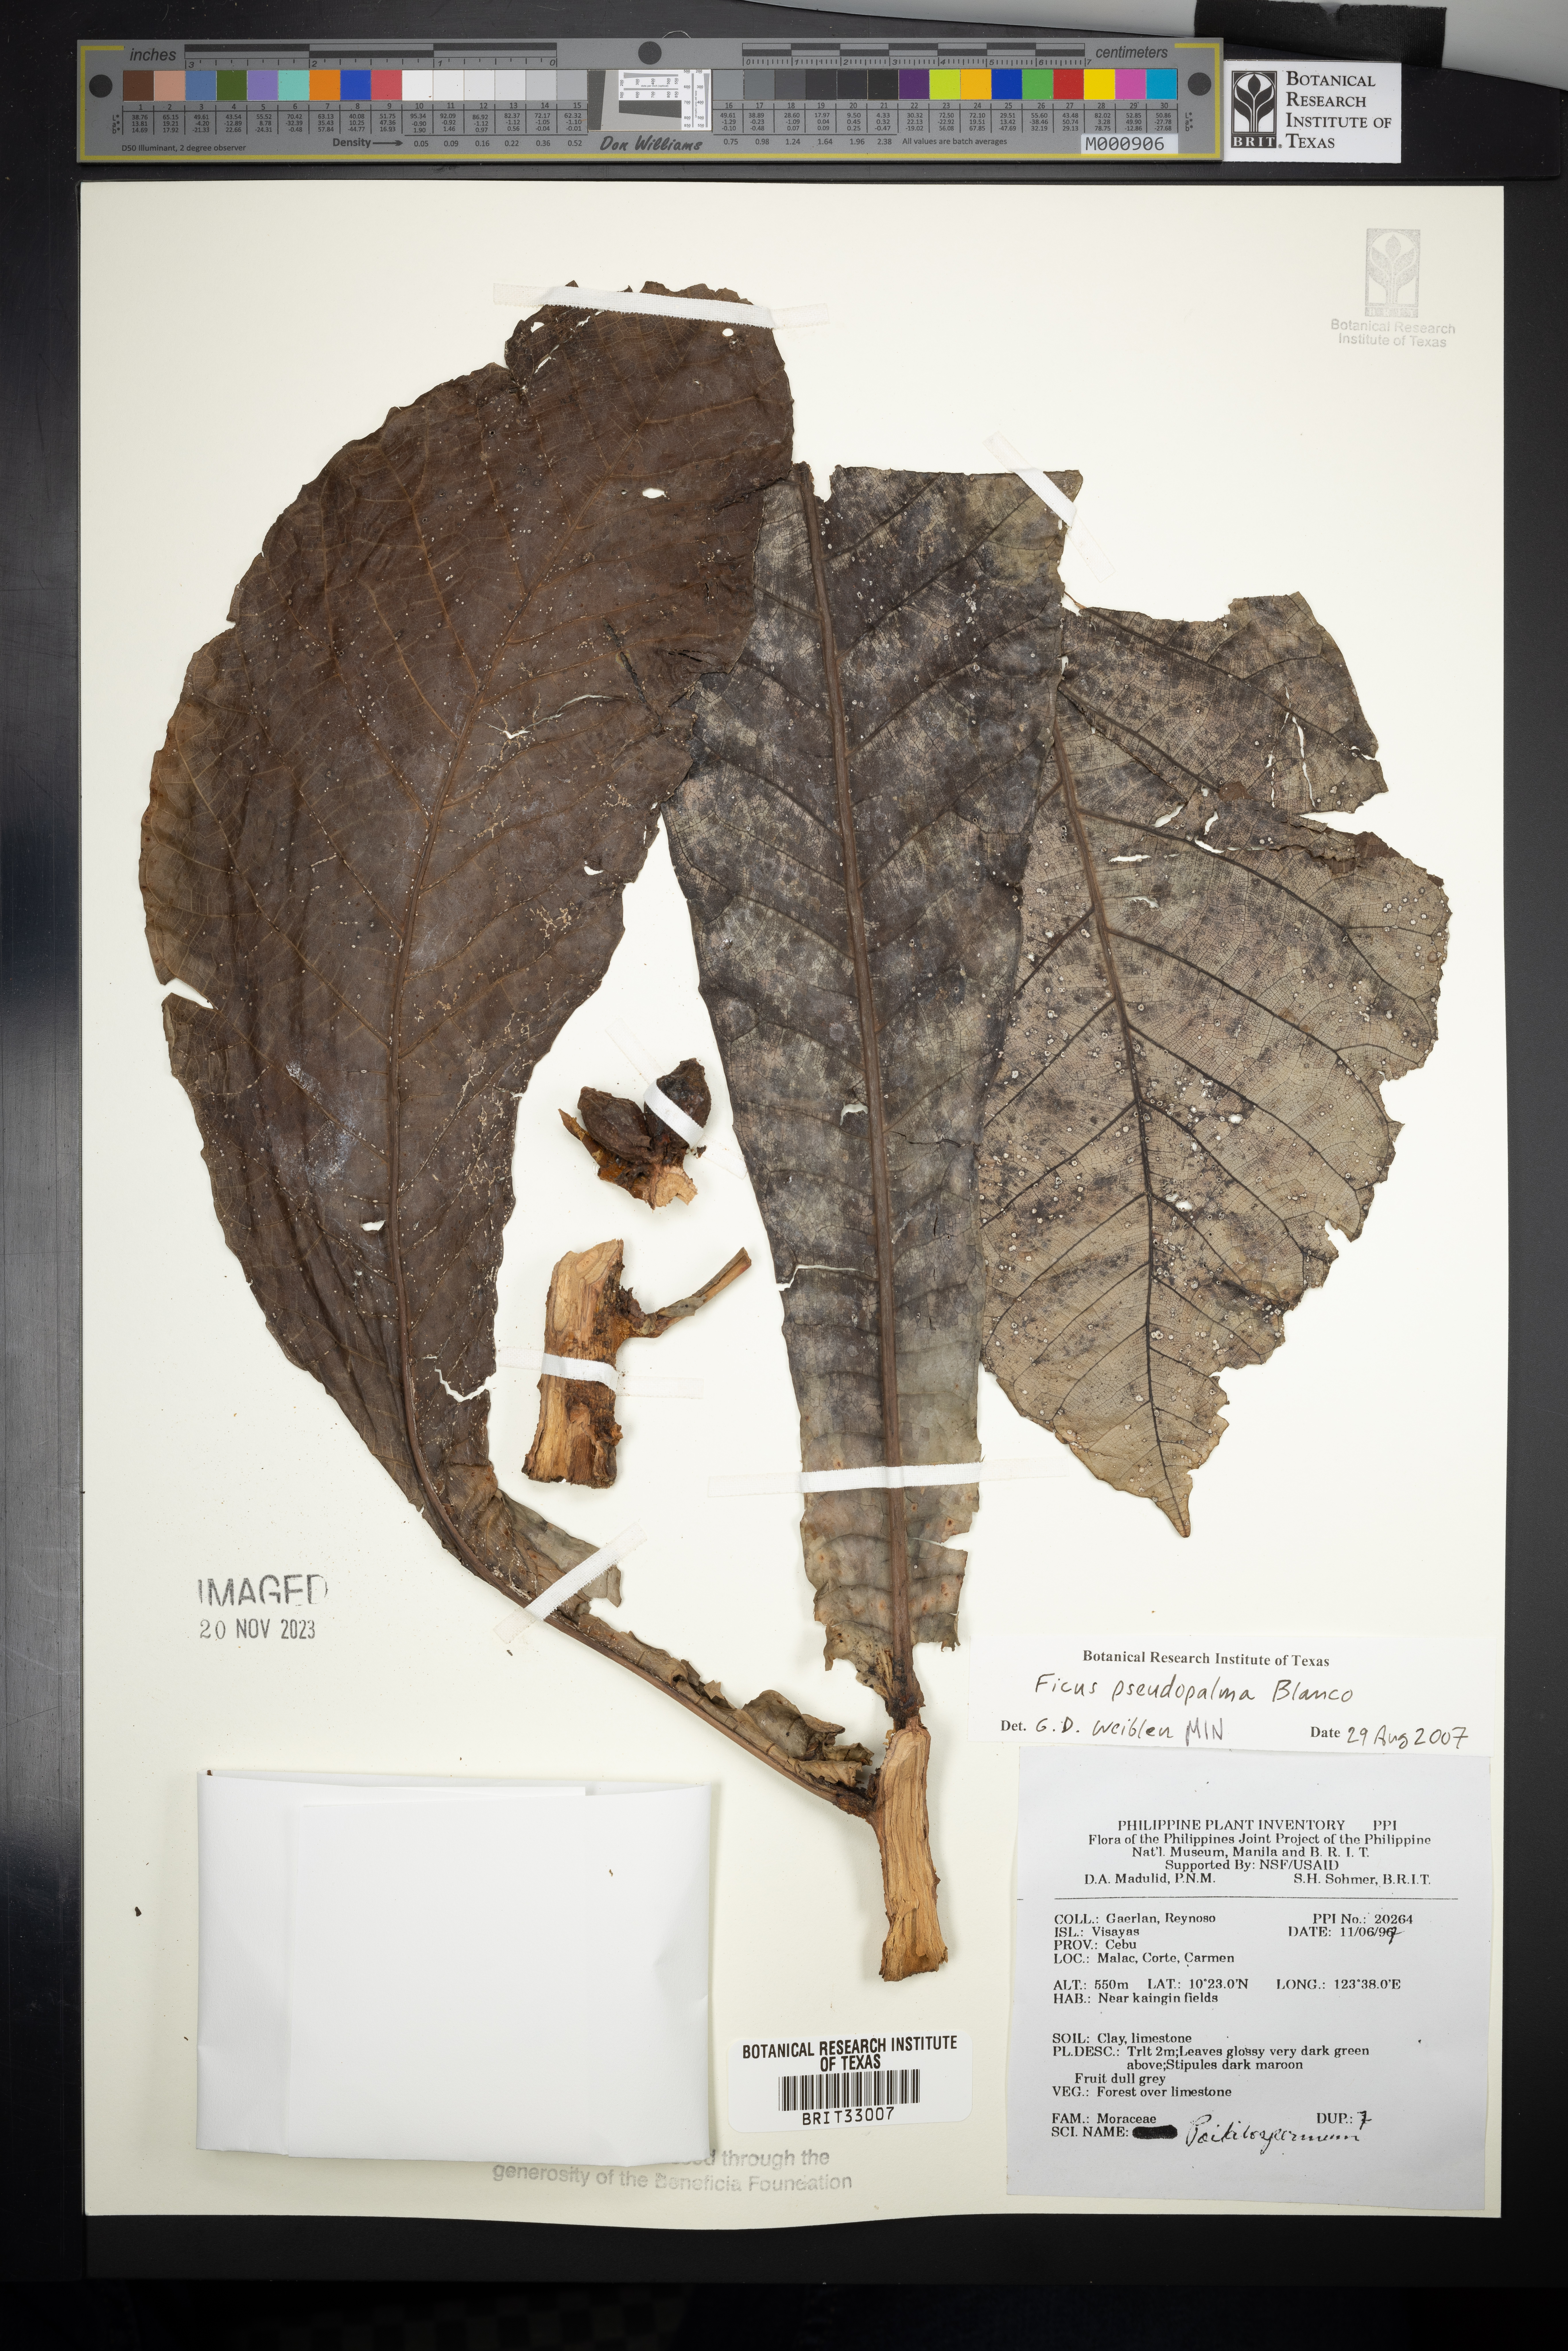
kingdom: Plantae
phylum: Tracheophyta
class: Magnoliopsida
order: Rosales
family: Moraceae
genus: Ficus
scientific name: Ficus pseudopalma
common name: Palm-like fig
